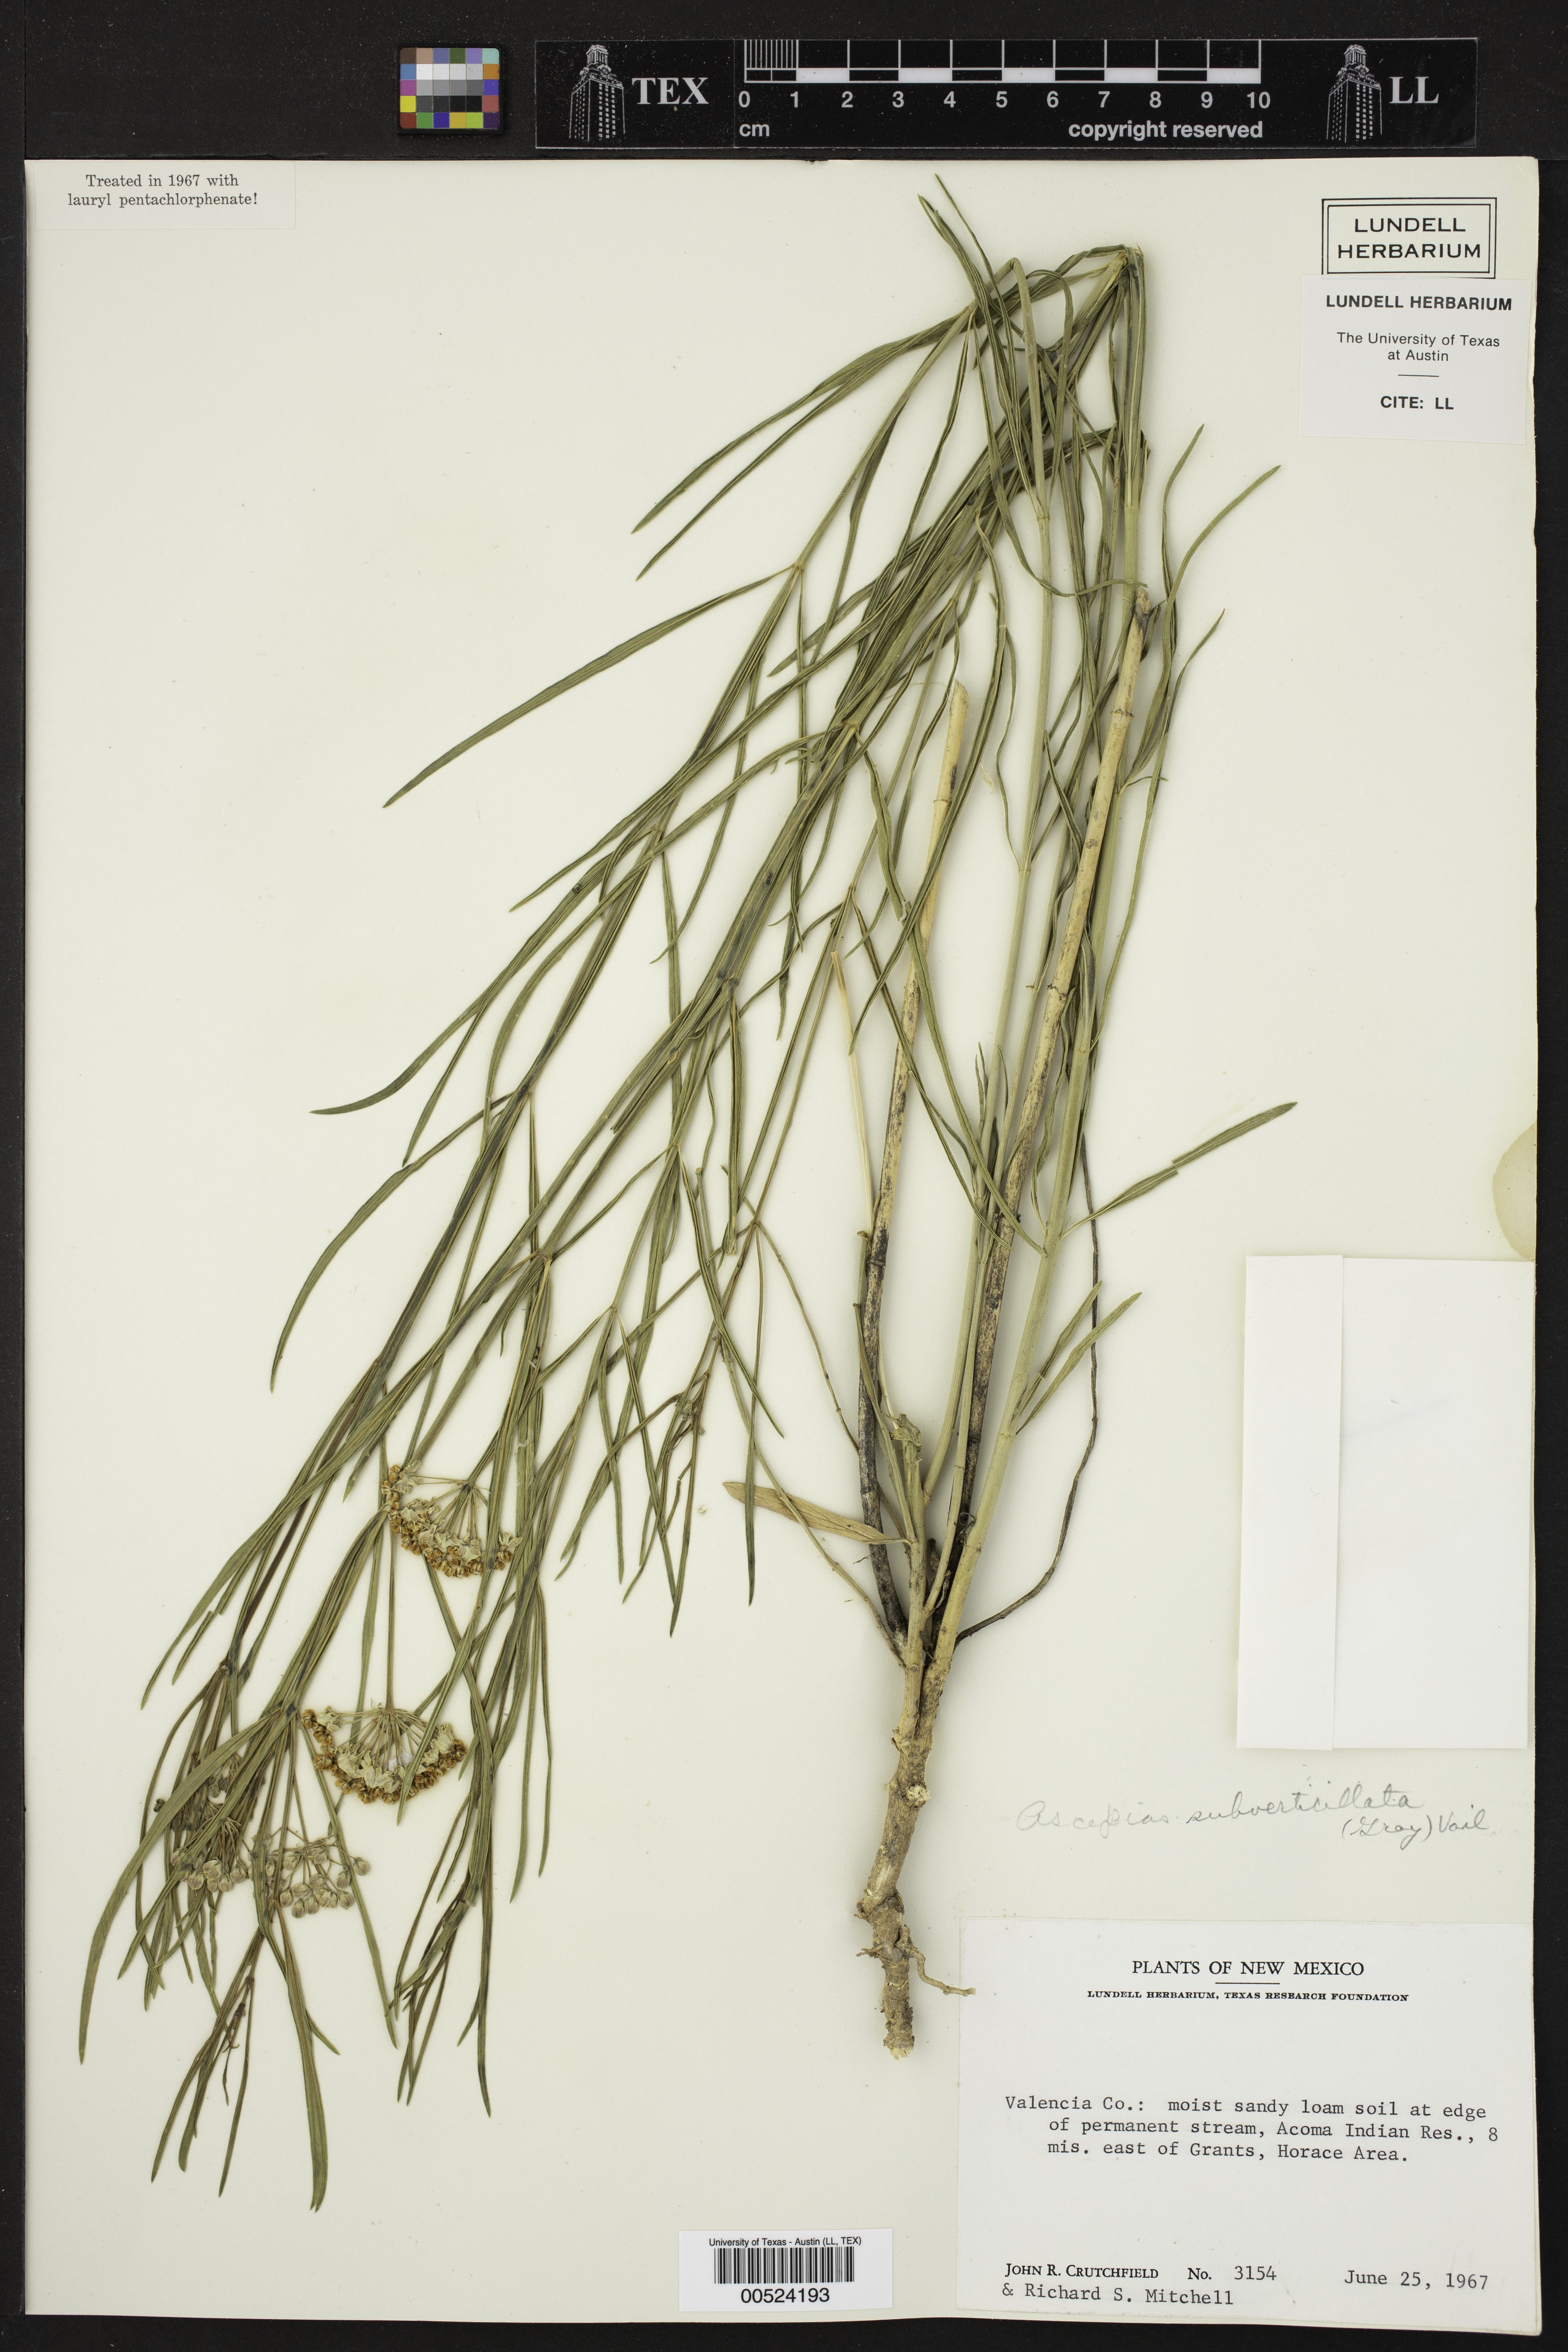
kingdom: Plantae
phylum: Tracheophyta
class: Magnoliopsida
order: Gentianales
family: Apocynaceae
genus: Asclepias
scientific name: Asclepias subverticillata
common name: Horsetail milkweed
